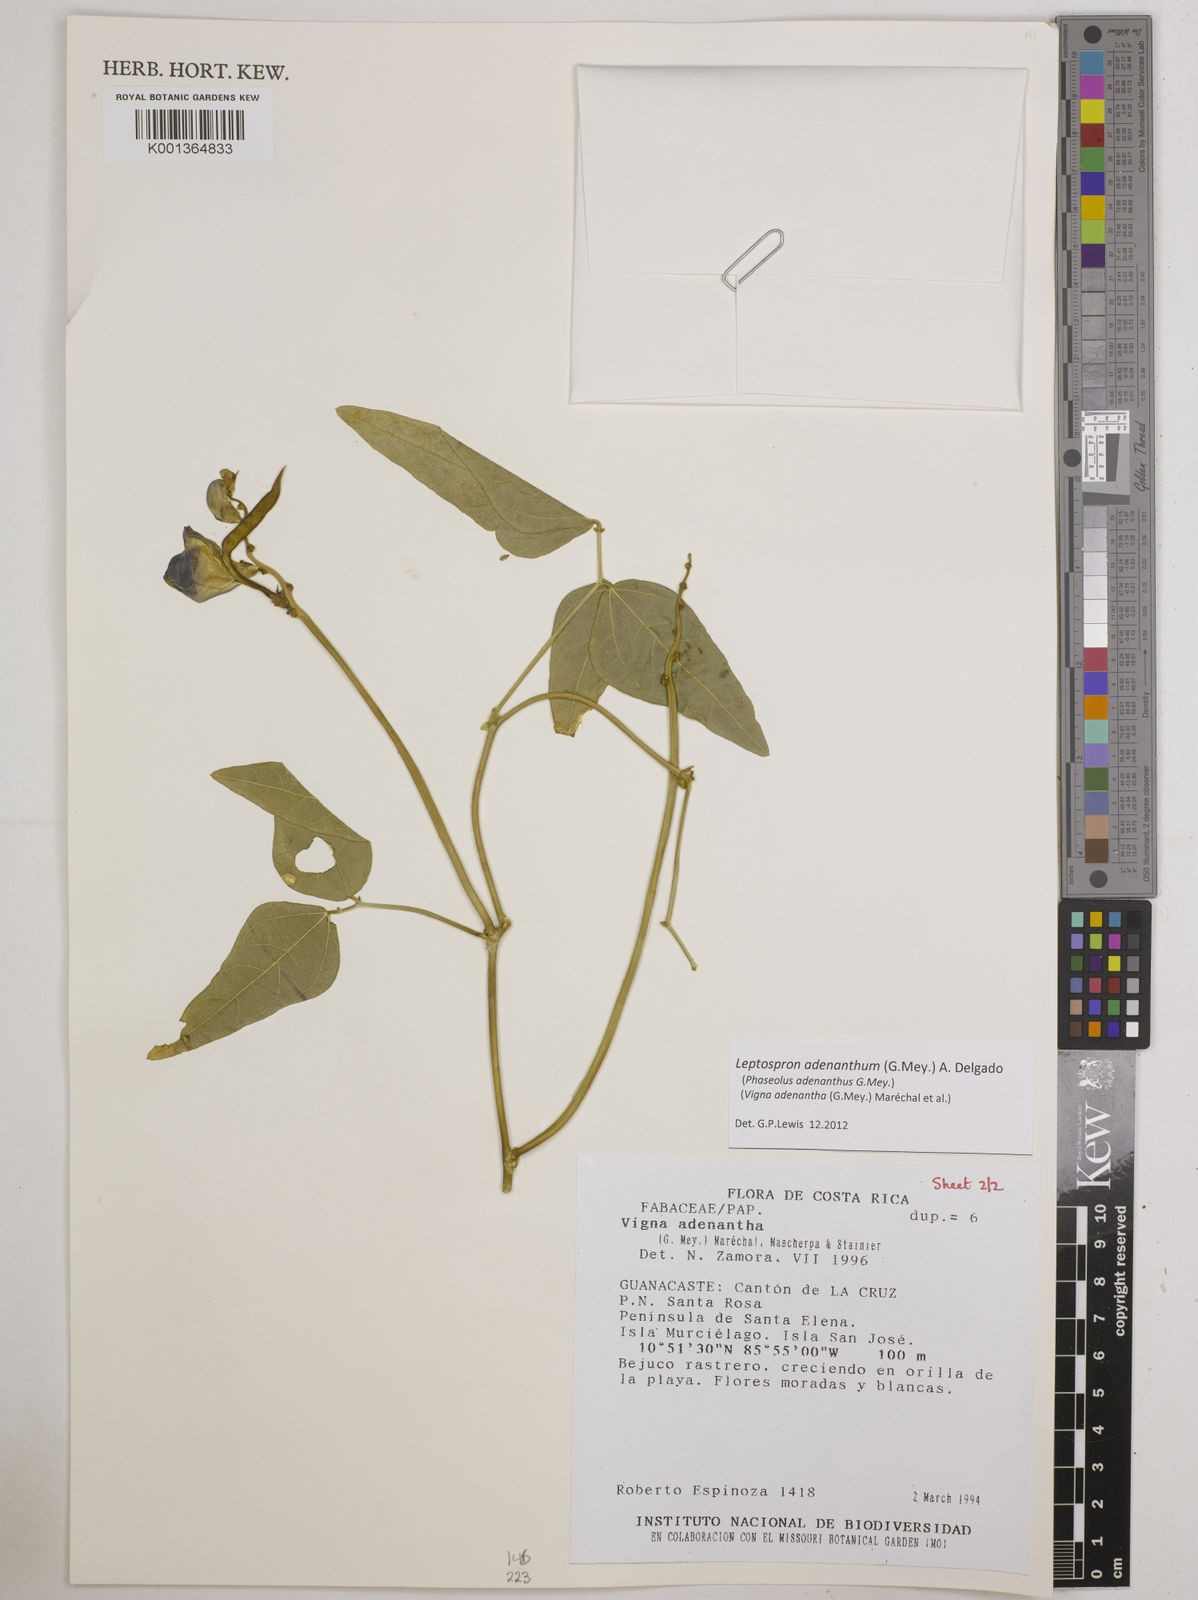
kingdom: Plantae
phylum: Tracheophyta
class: Magnoliopsida
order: Fabales
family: Fabaceae
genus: Leptospron
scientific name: Leptospron adenanthum
